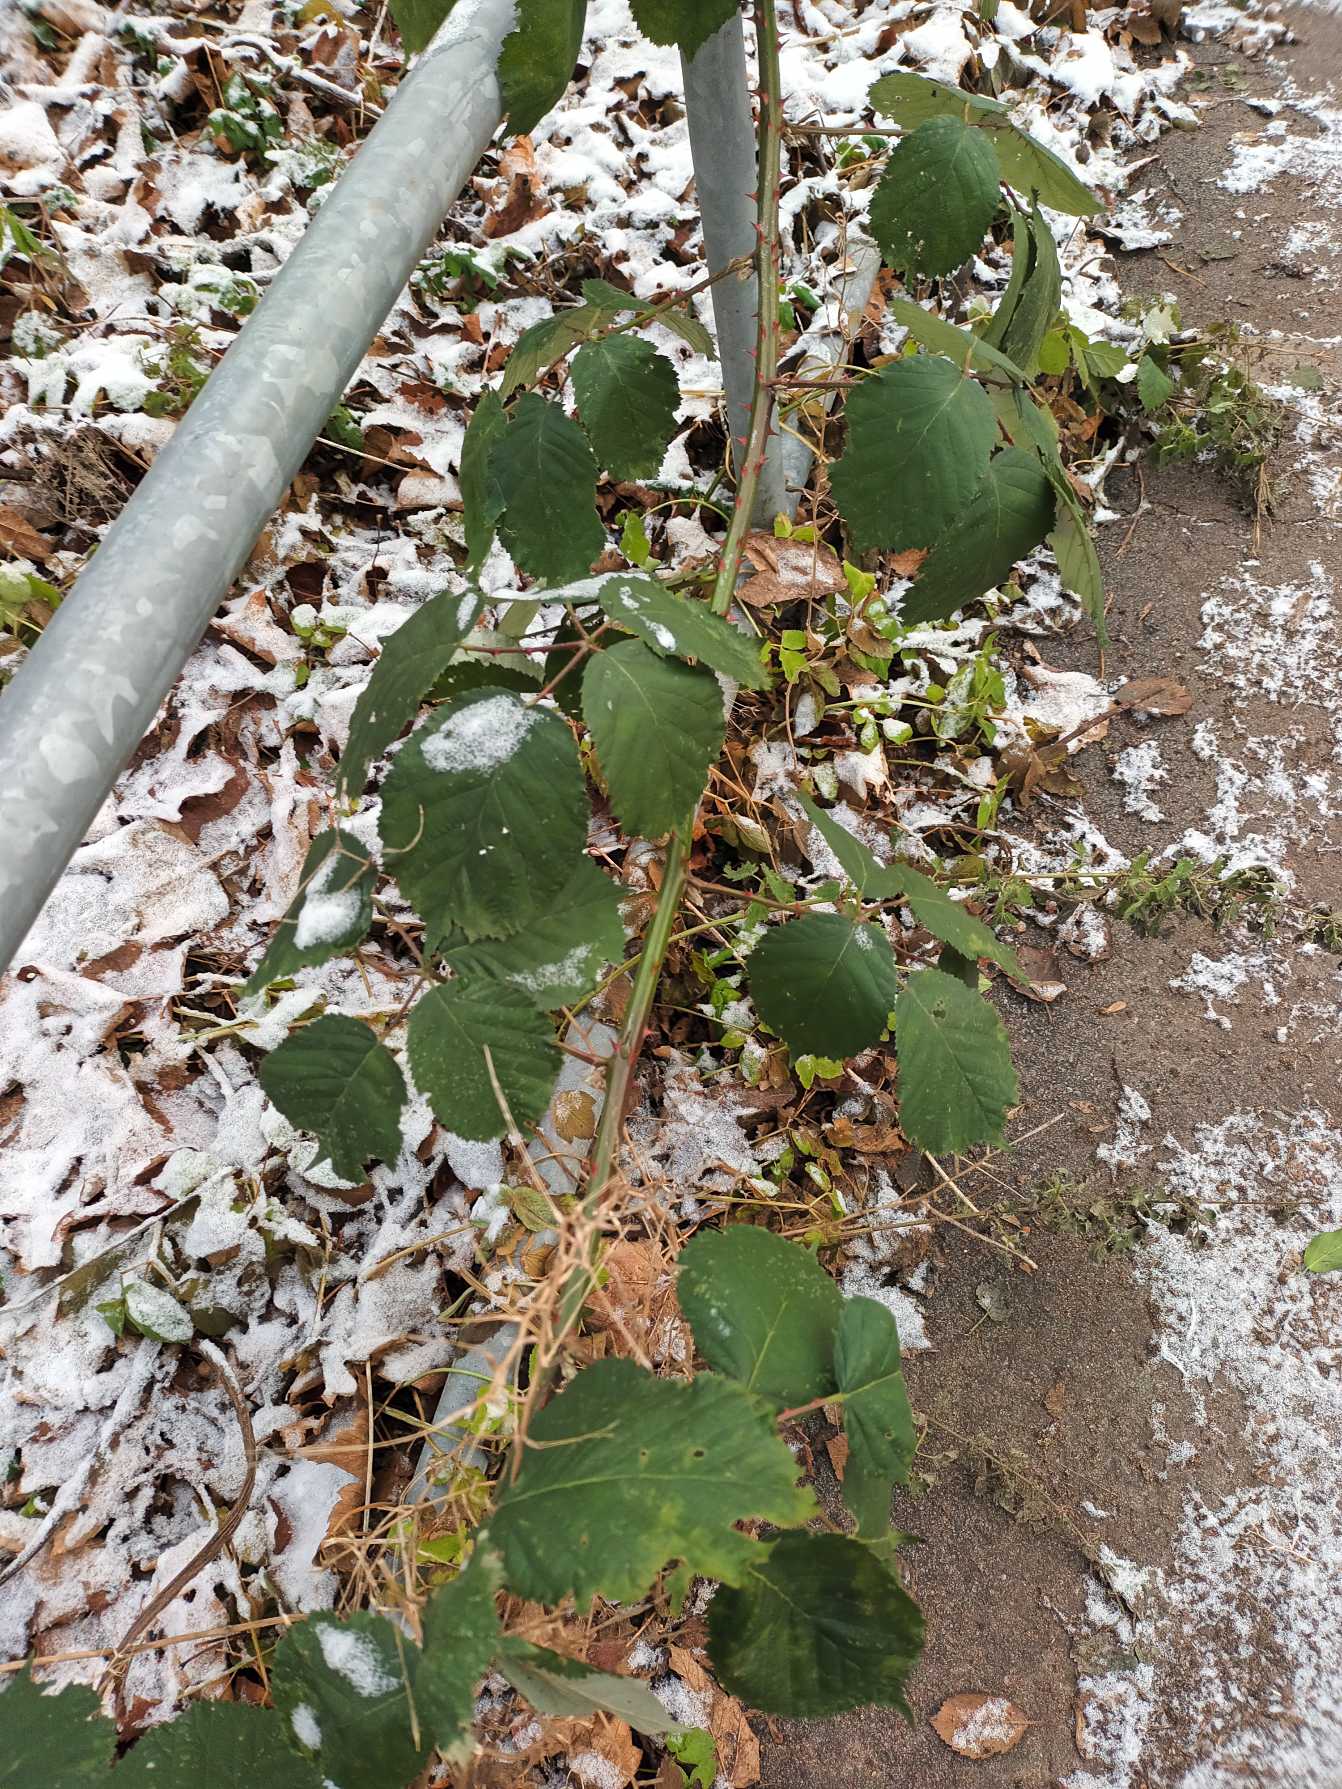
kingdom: Plantae
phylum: Tracheophyta
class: Magnoliopsida
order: Rosales
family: Rosaceae
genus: Rubus
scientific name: Rubus armeniacus
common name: Armensk brombær
